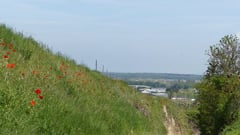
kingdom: Animalia
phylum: Chordata
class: Aves
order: Coraciiformes
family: Meropidae
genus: Merops
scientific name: Merops apiaster
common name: European bee-eater
